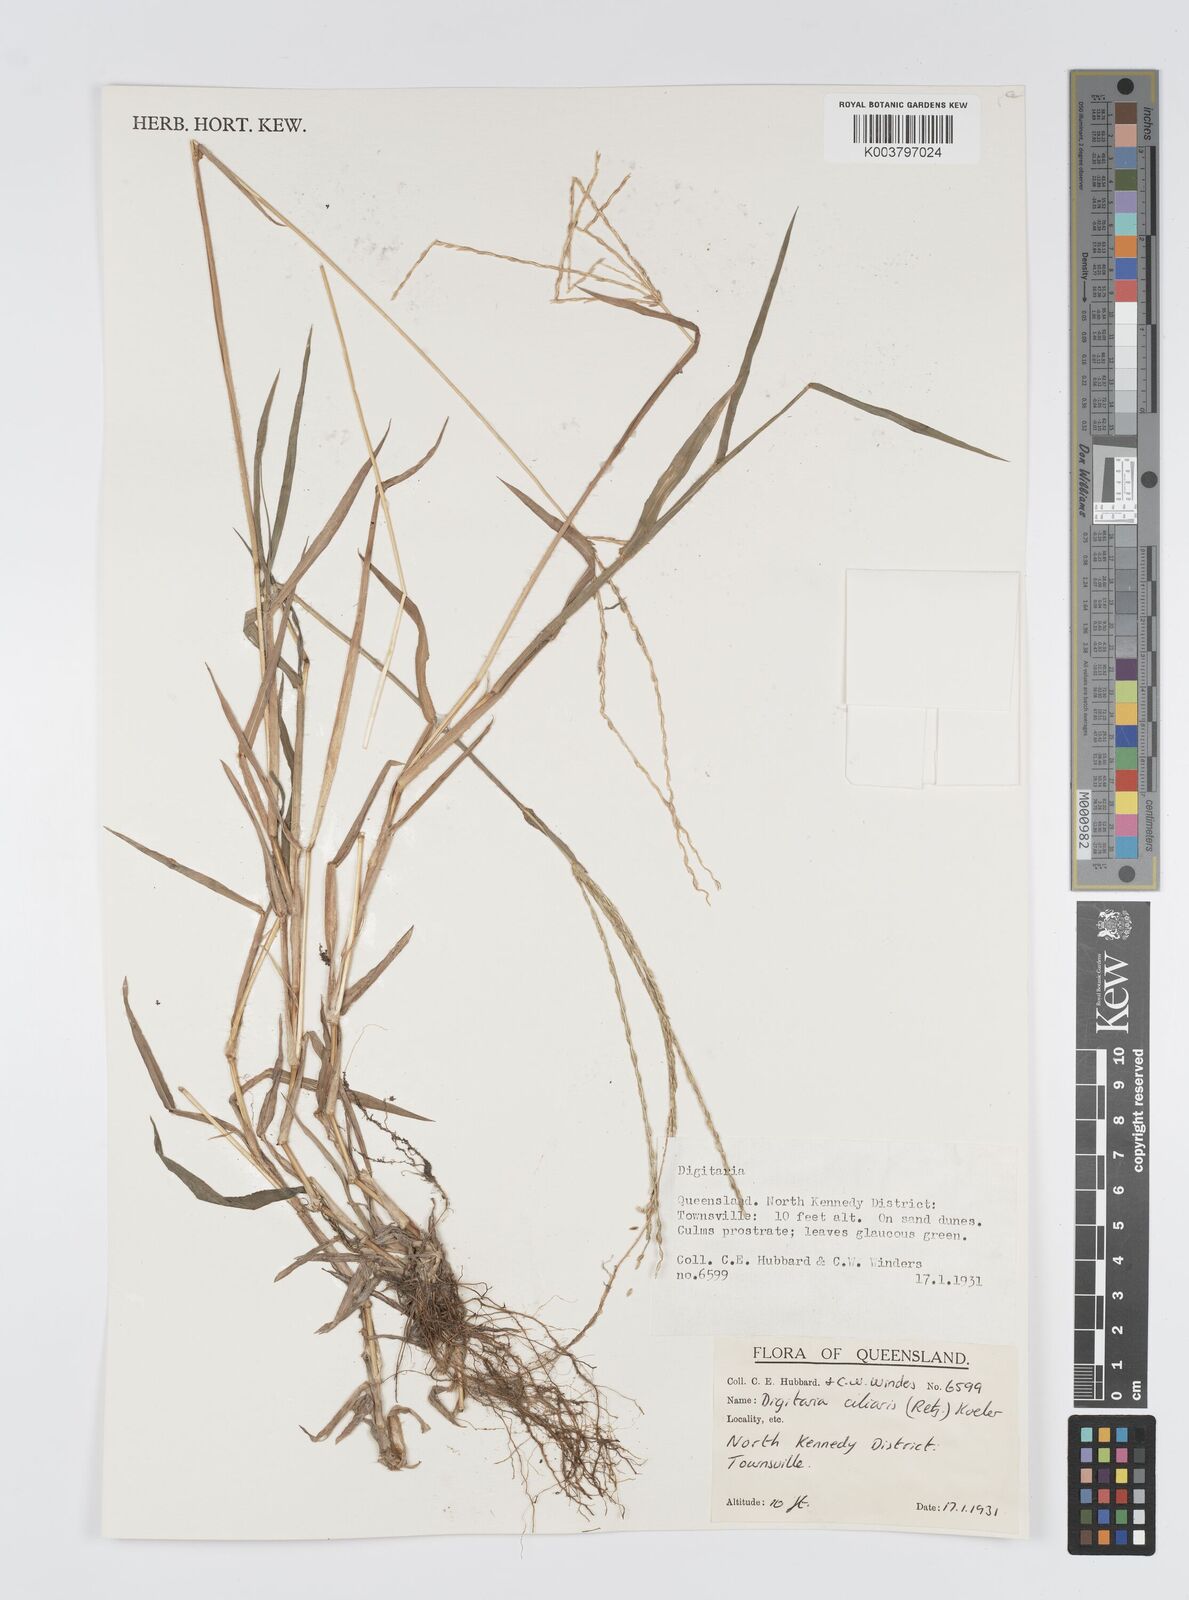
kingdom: Plantae
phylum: Tracheophyta
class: Liliopsida
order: Poales
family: Poaceae
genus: Digitaria
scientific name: Digitaria ciliaris
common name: Tropical finger-grass
